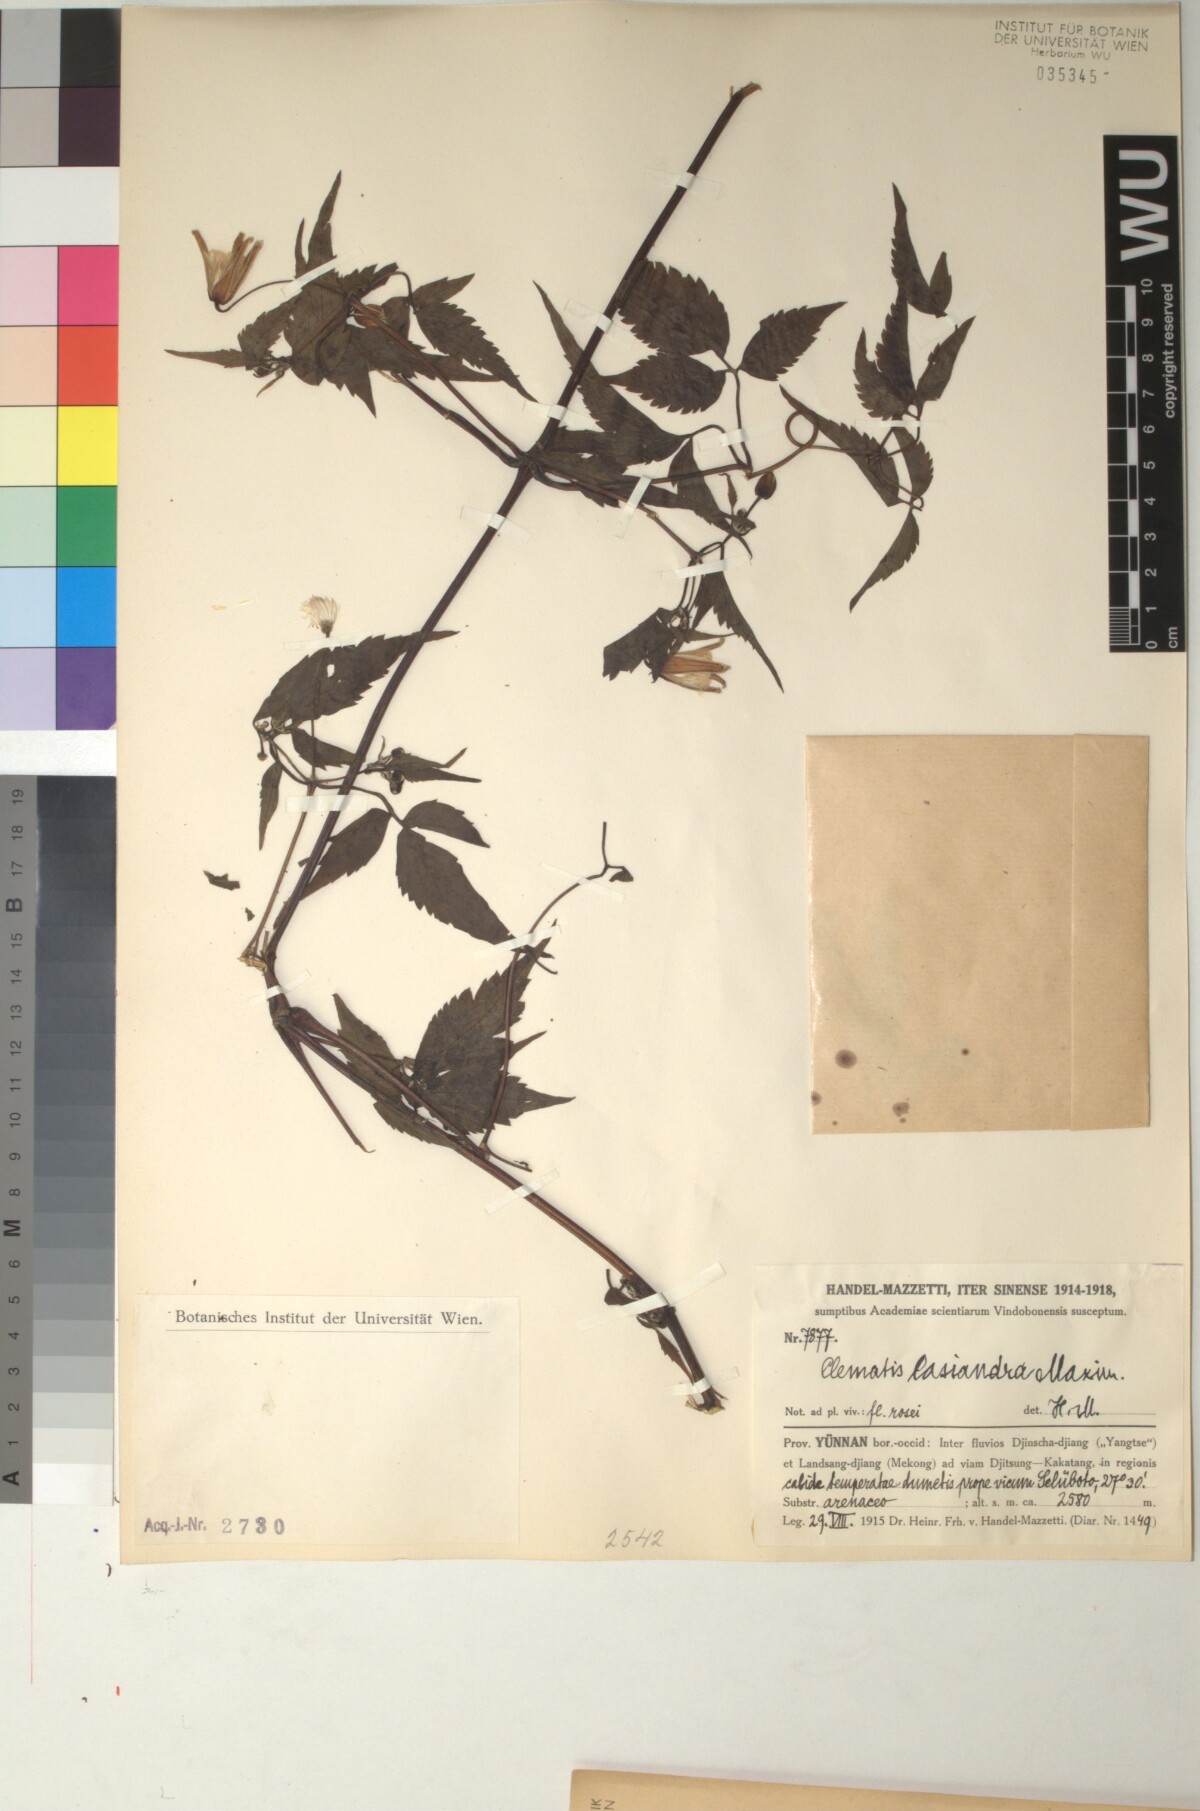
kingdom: Plantae
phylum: Tracheophyta
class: Magnoliopsida
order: Ranunculales
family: Ranunculaceae
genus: Clematis
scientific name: Clematis lasiandra
